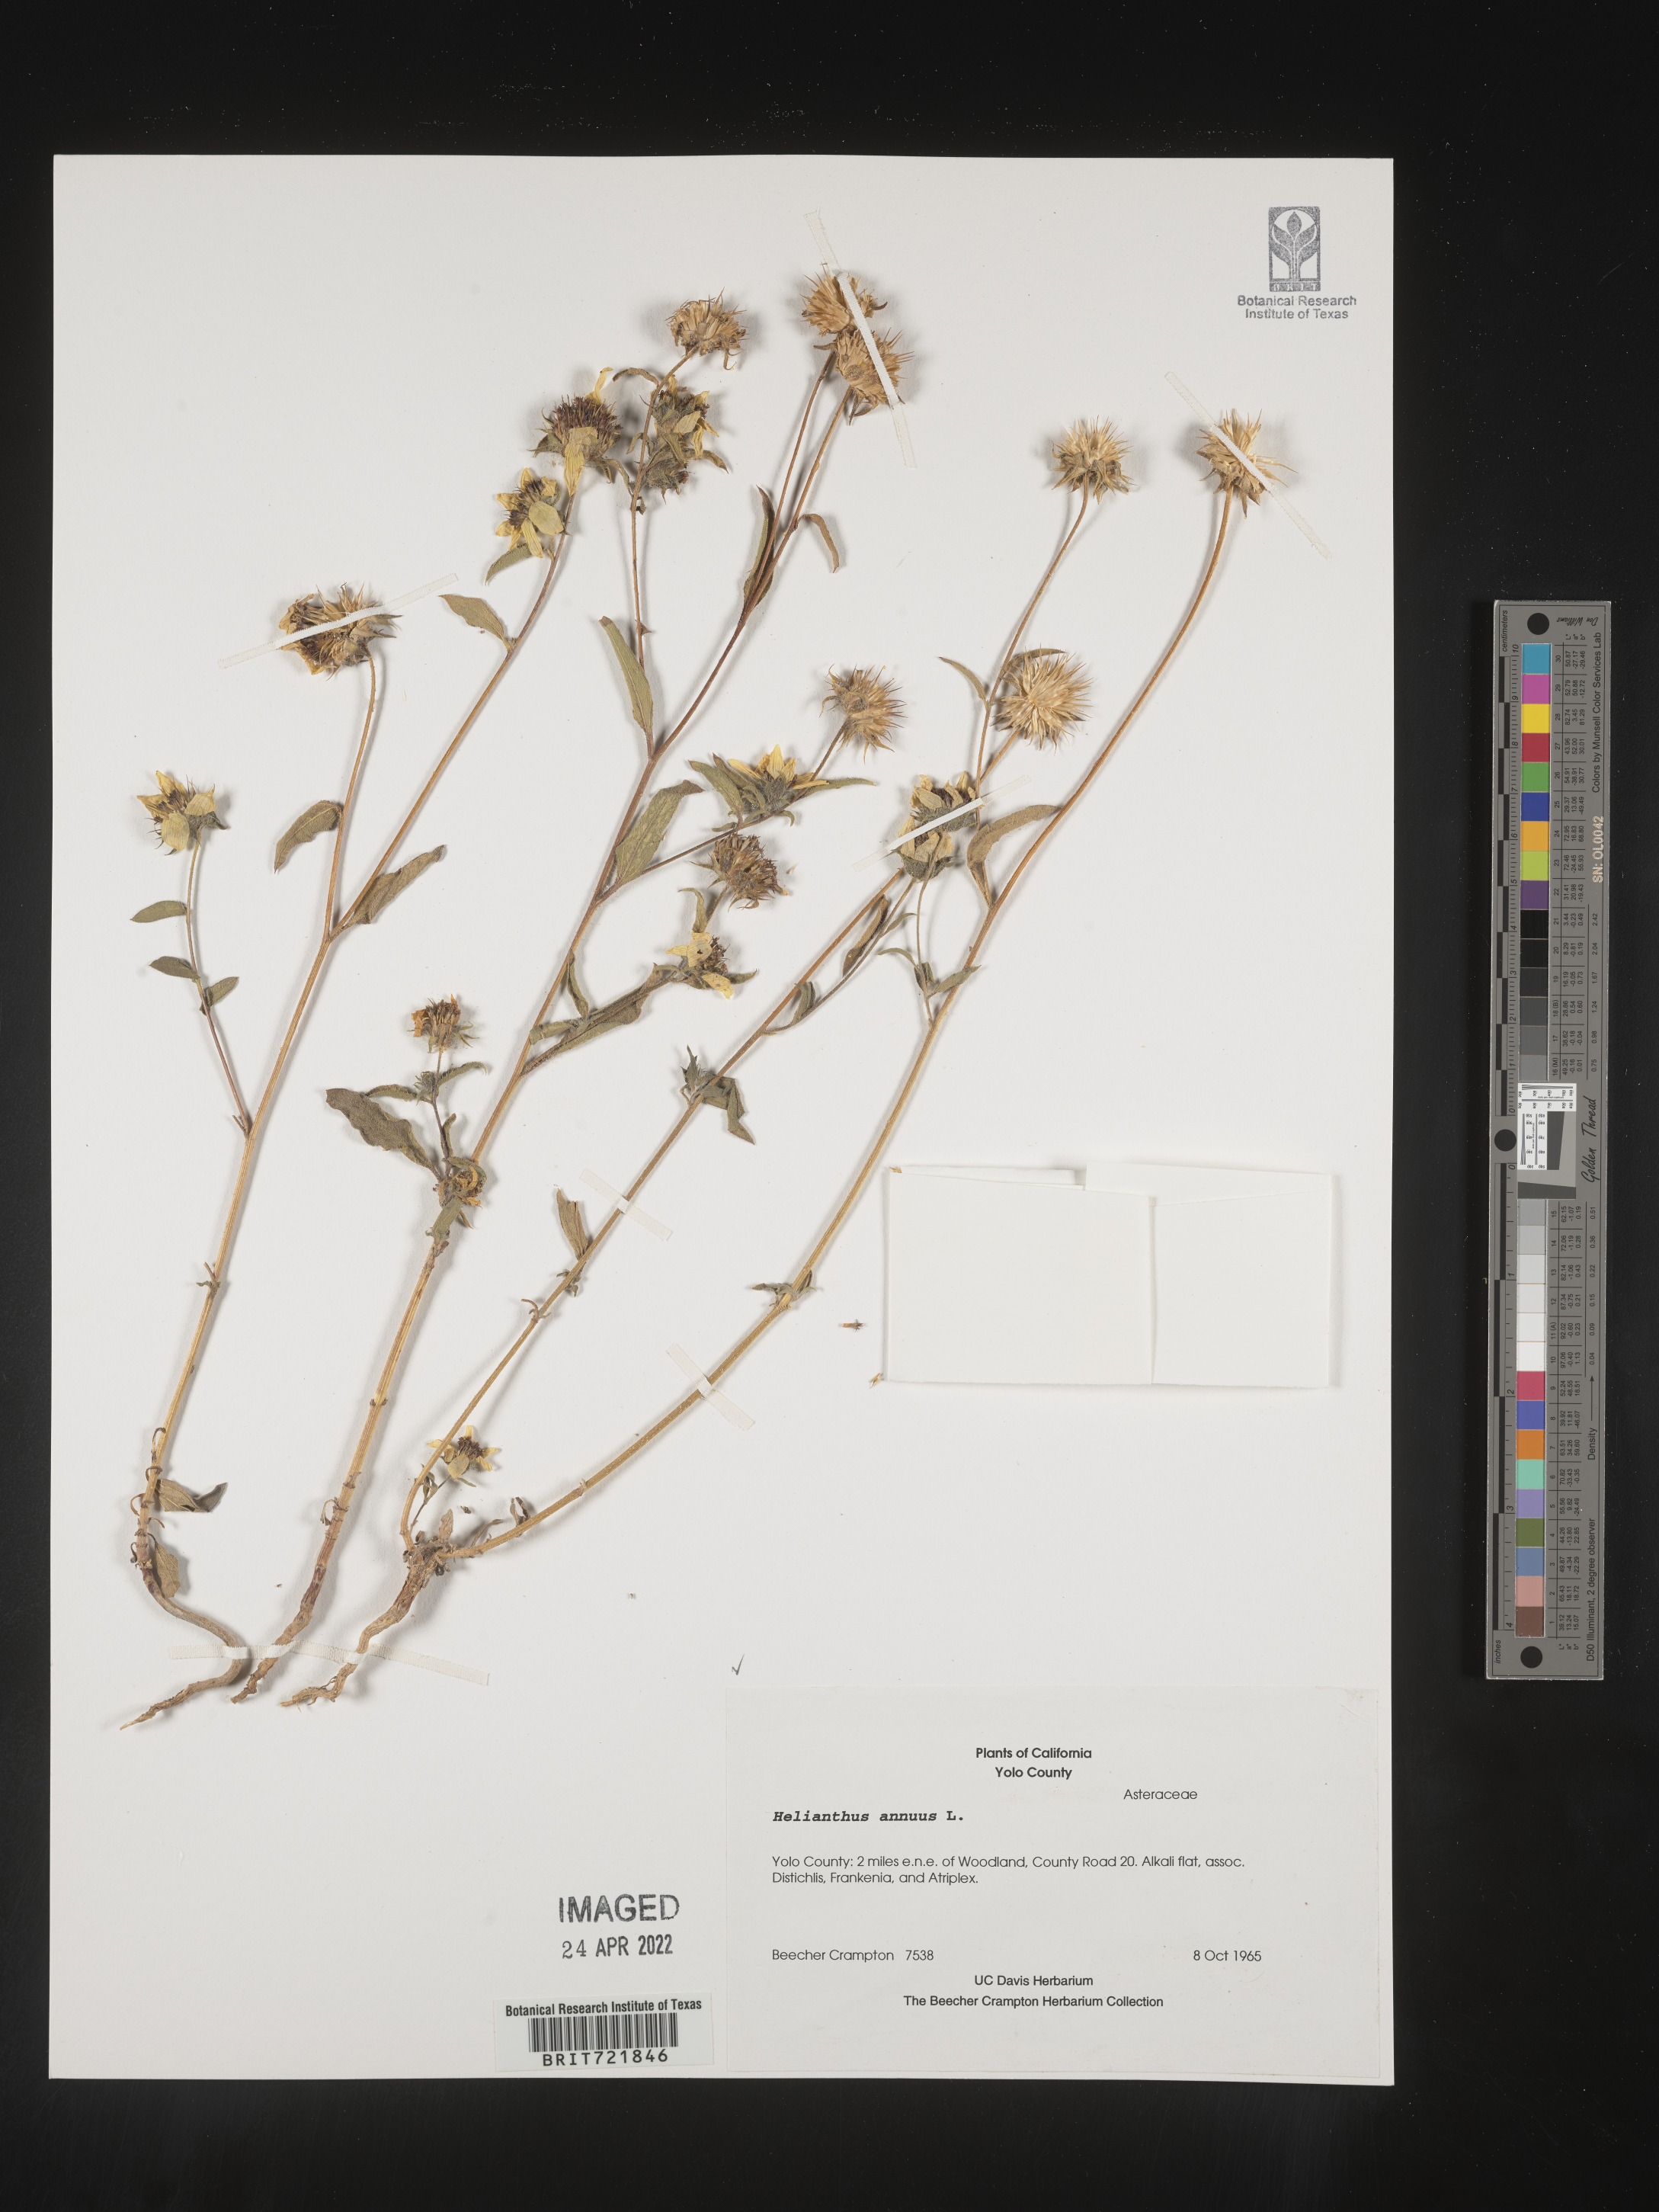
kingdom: Plantae
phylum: Tracheophyta
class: Magnoliopsida
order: Asterales
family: Asteraceae
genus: Helianthus
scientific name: Helianthus annuus
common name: Sunflower
